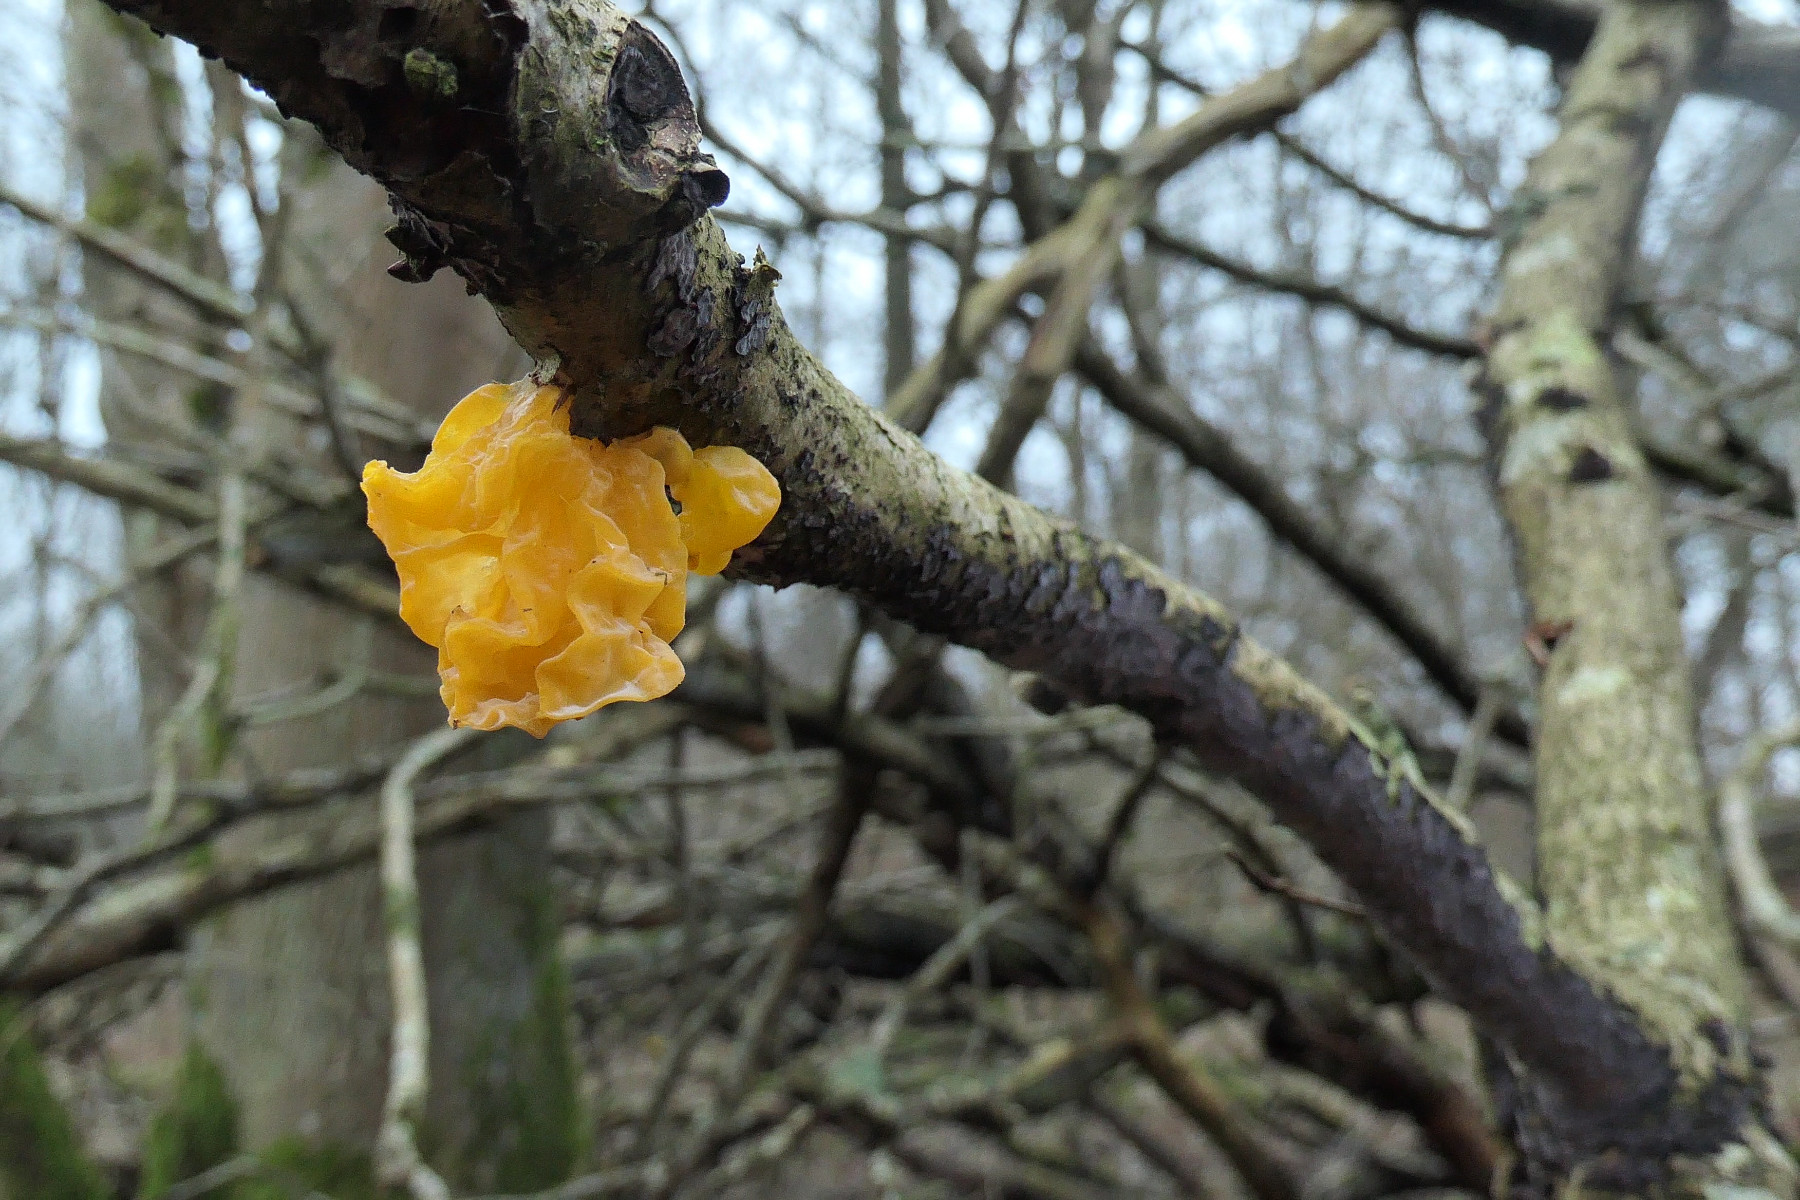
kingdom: Fungi
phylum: Basidiomycota
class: Tremellomycetes
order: Tremellales
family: Tremellaceae
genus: Tremella
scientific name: Tremella mesenterica
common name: gul bævresvamp
